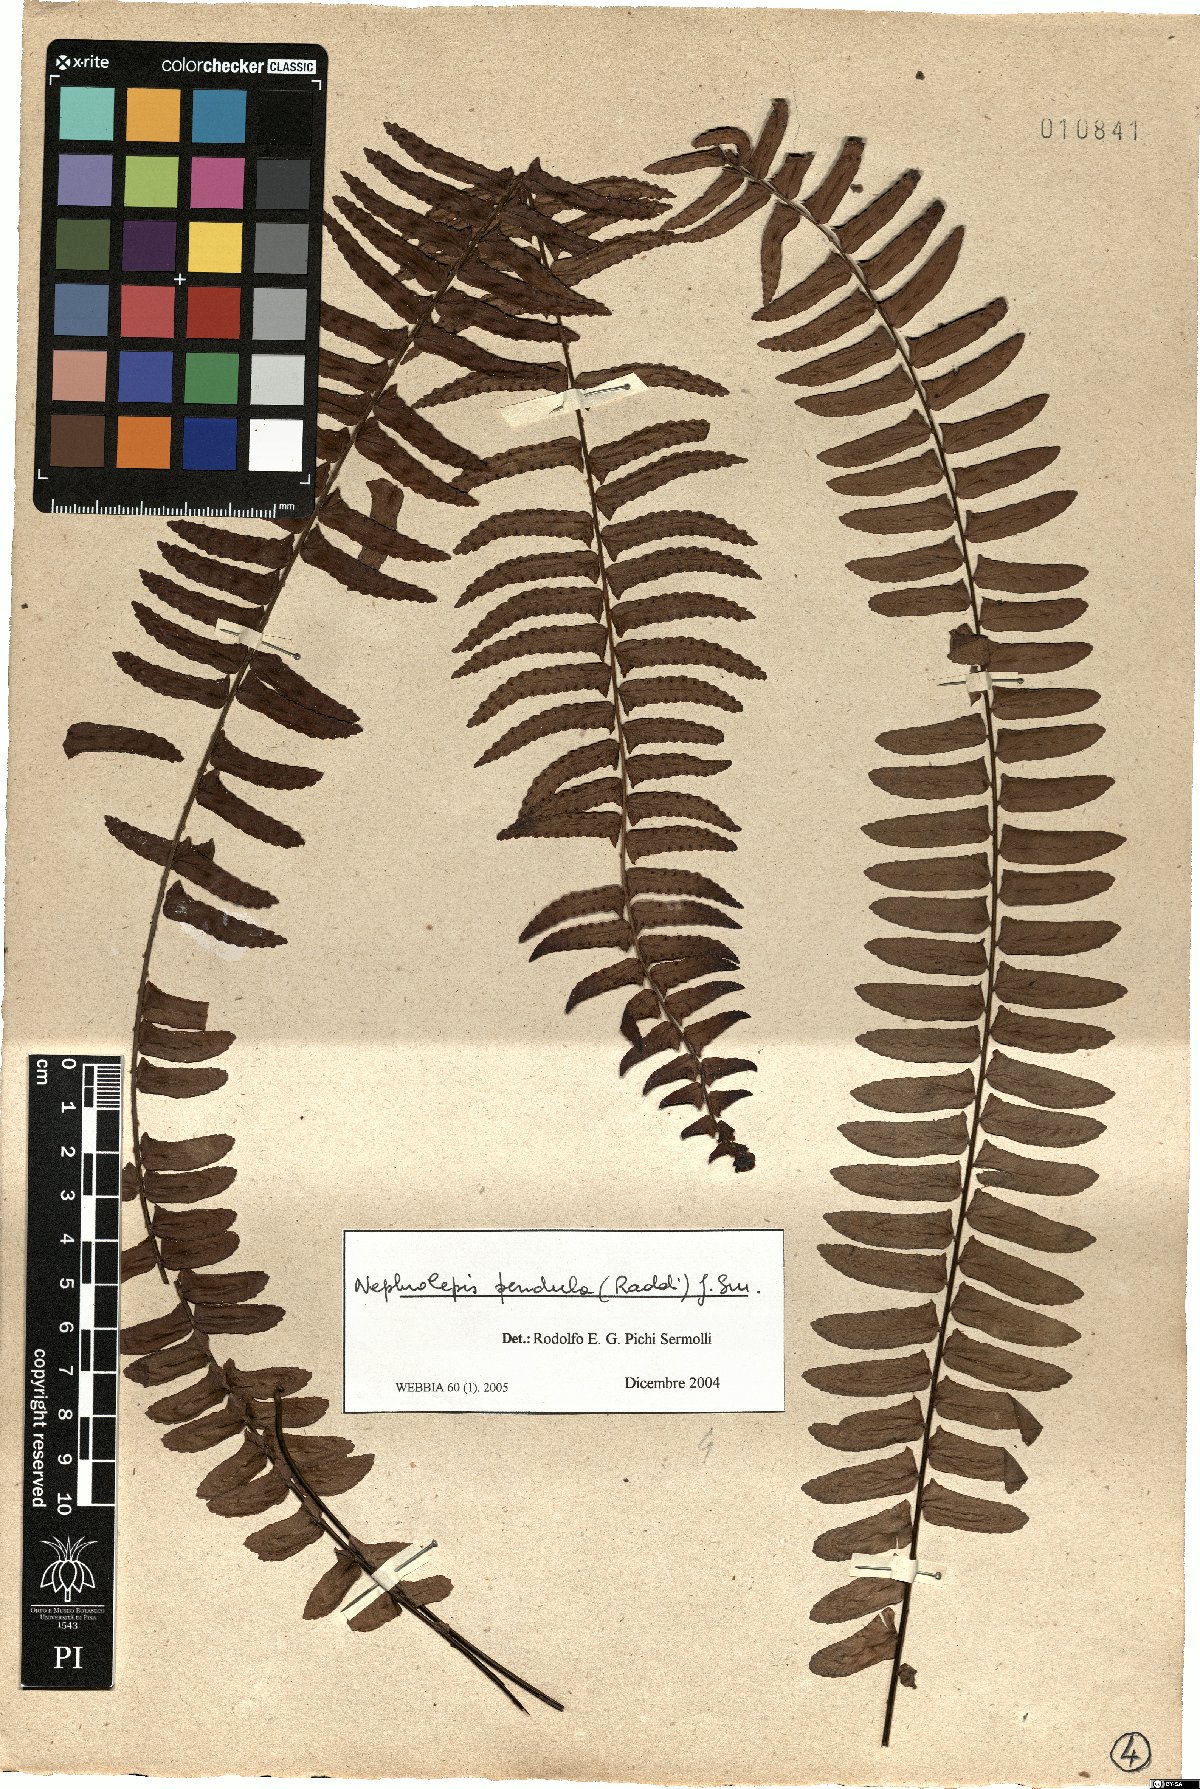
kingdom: Plantae
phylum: Tracheophyta
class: Polypodiopsida
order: Polypodiales
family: Nephrolepidaceae
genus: Nephrolepis
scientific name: Nephrolepis pendula
